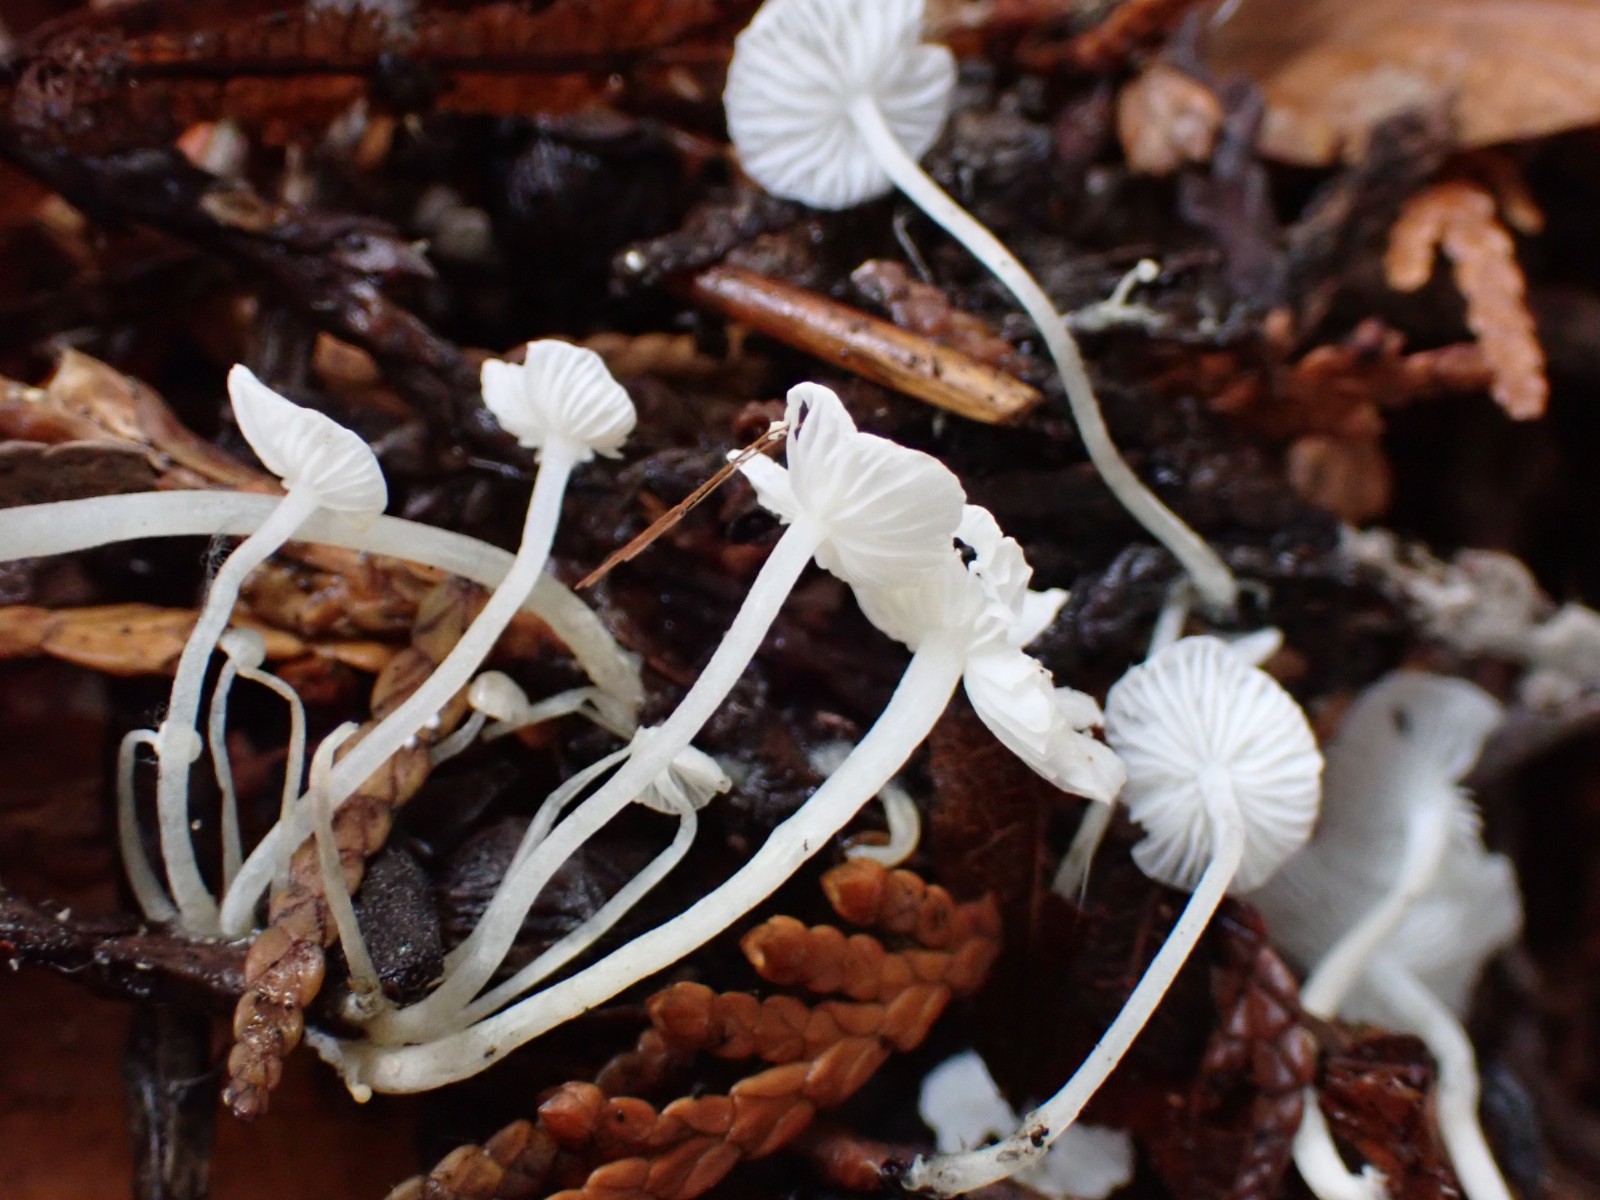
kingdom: Fungi
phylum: Basidiomycota
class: Agaricomycetes
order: Agaricales
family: Mycenaceae
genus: Hemimycena
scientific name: Hemimycena lactea
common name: mælkehvid huesvamp
